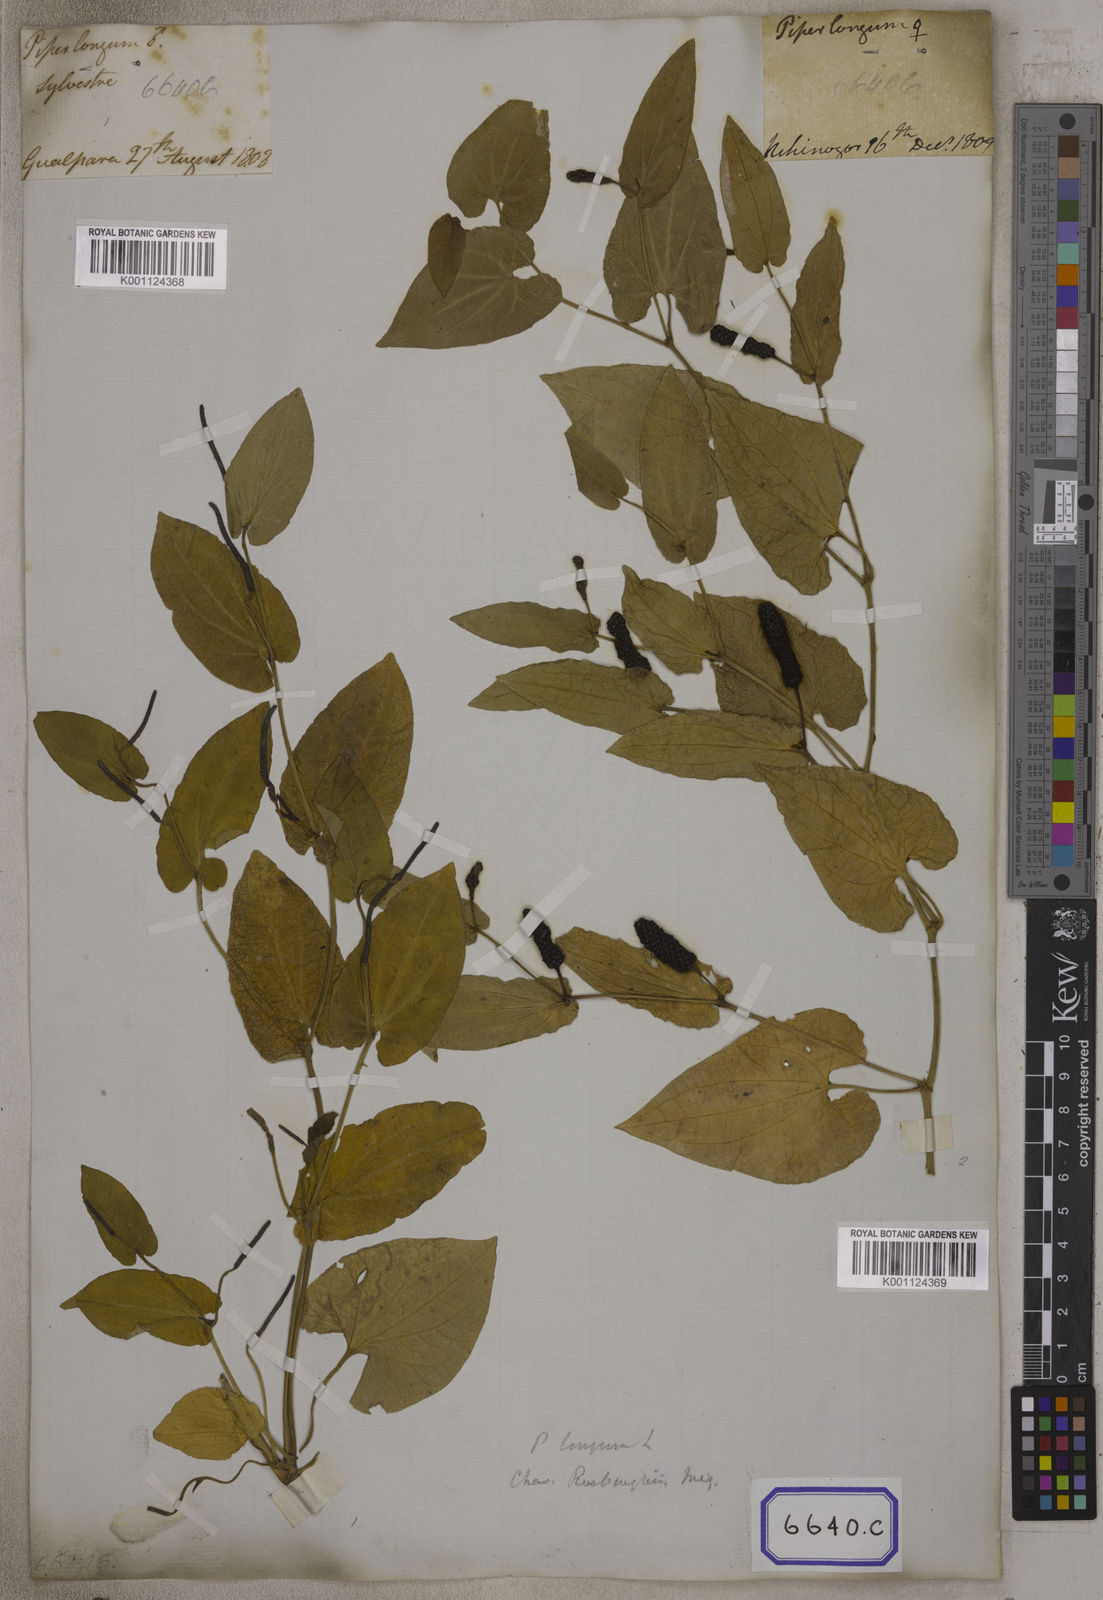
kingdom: Plantae
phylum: Tracheophyta
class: Magnoliopsida
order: Piperales
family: Piperaceae
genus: Piper
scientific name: Piper longum
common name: Long pepper
